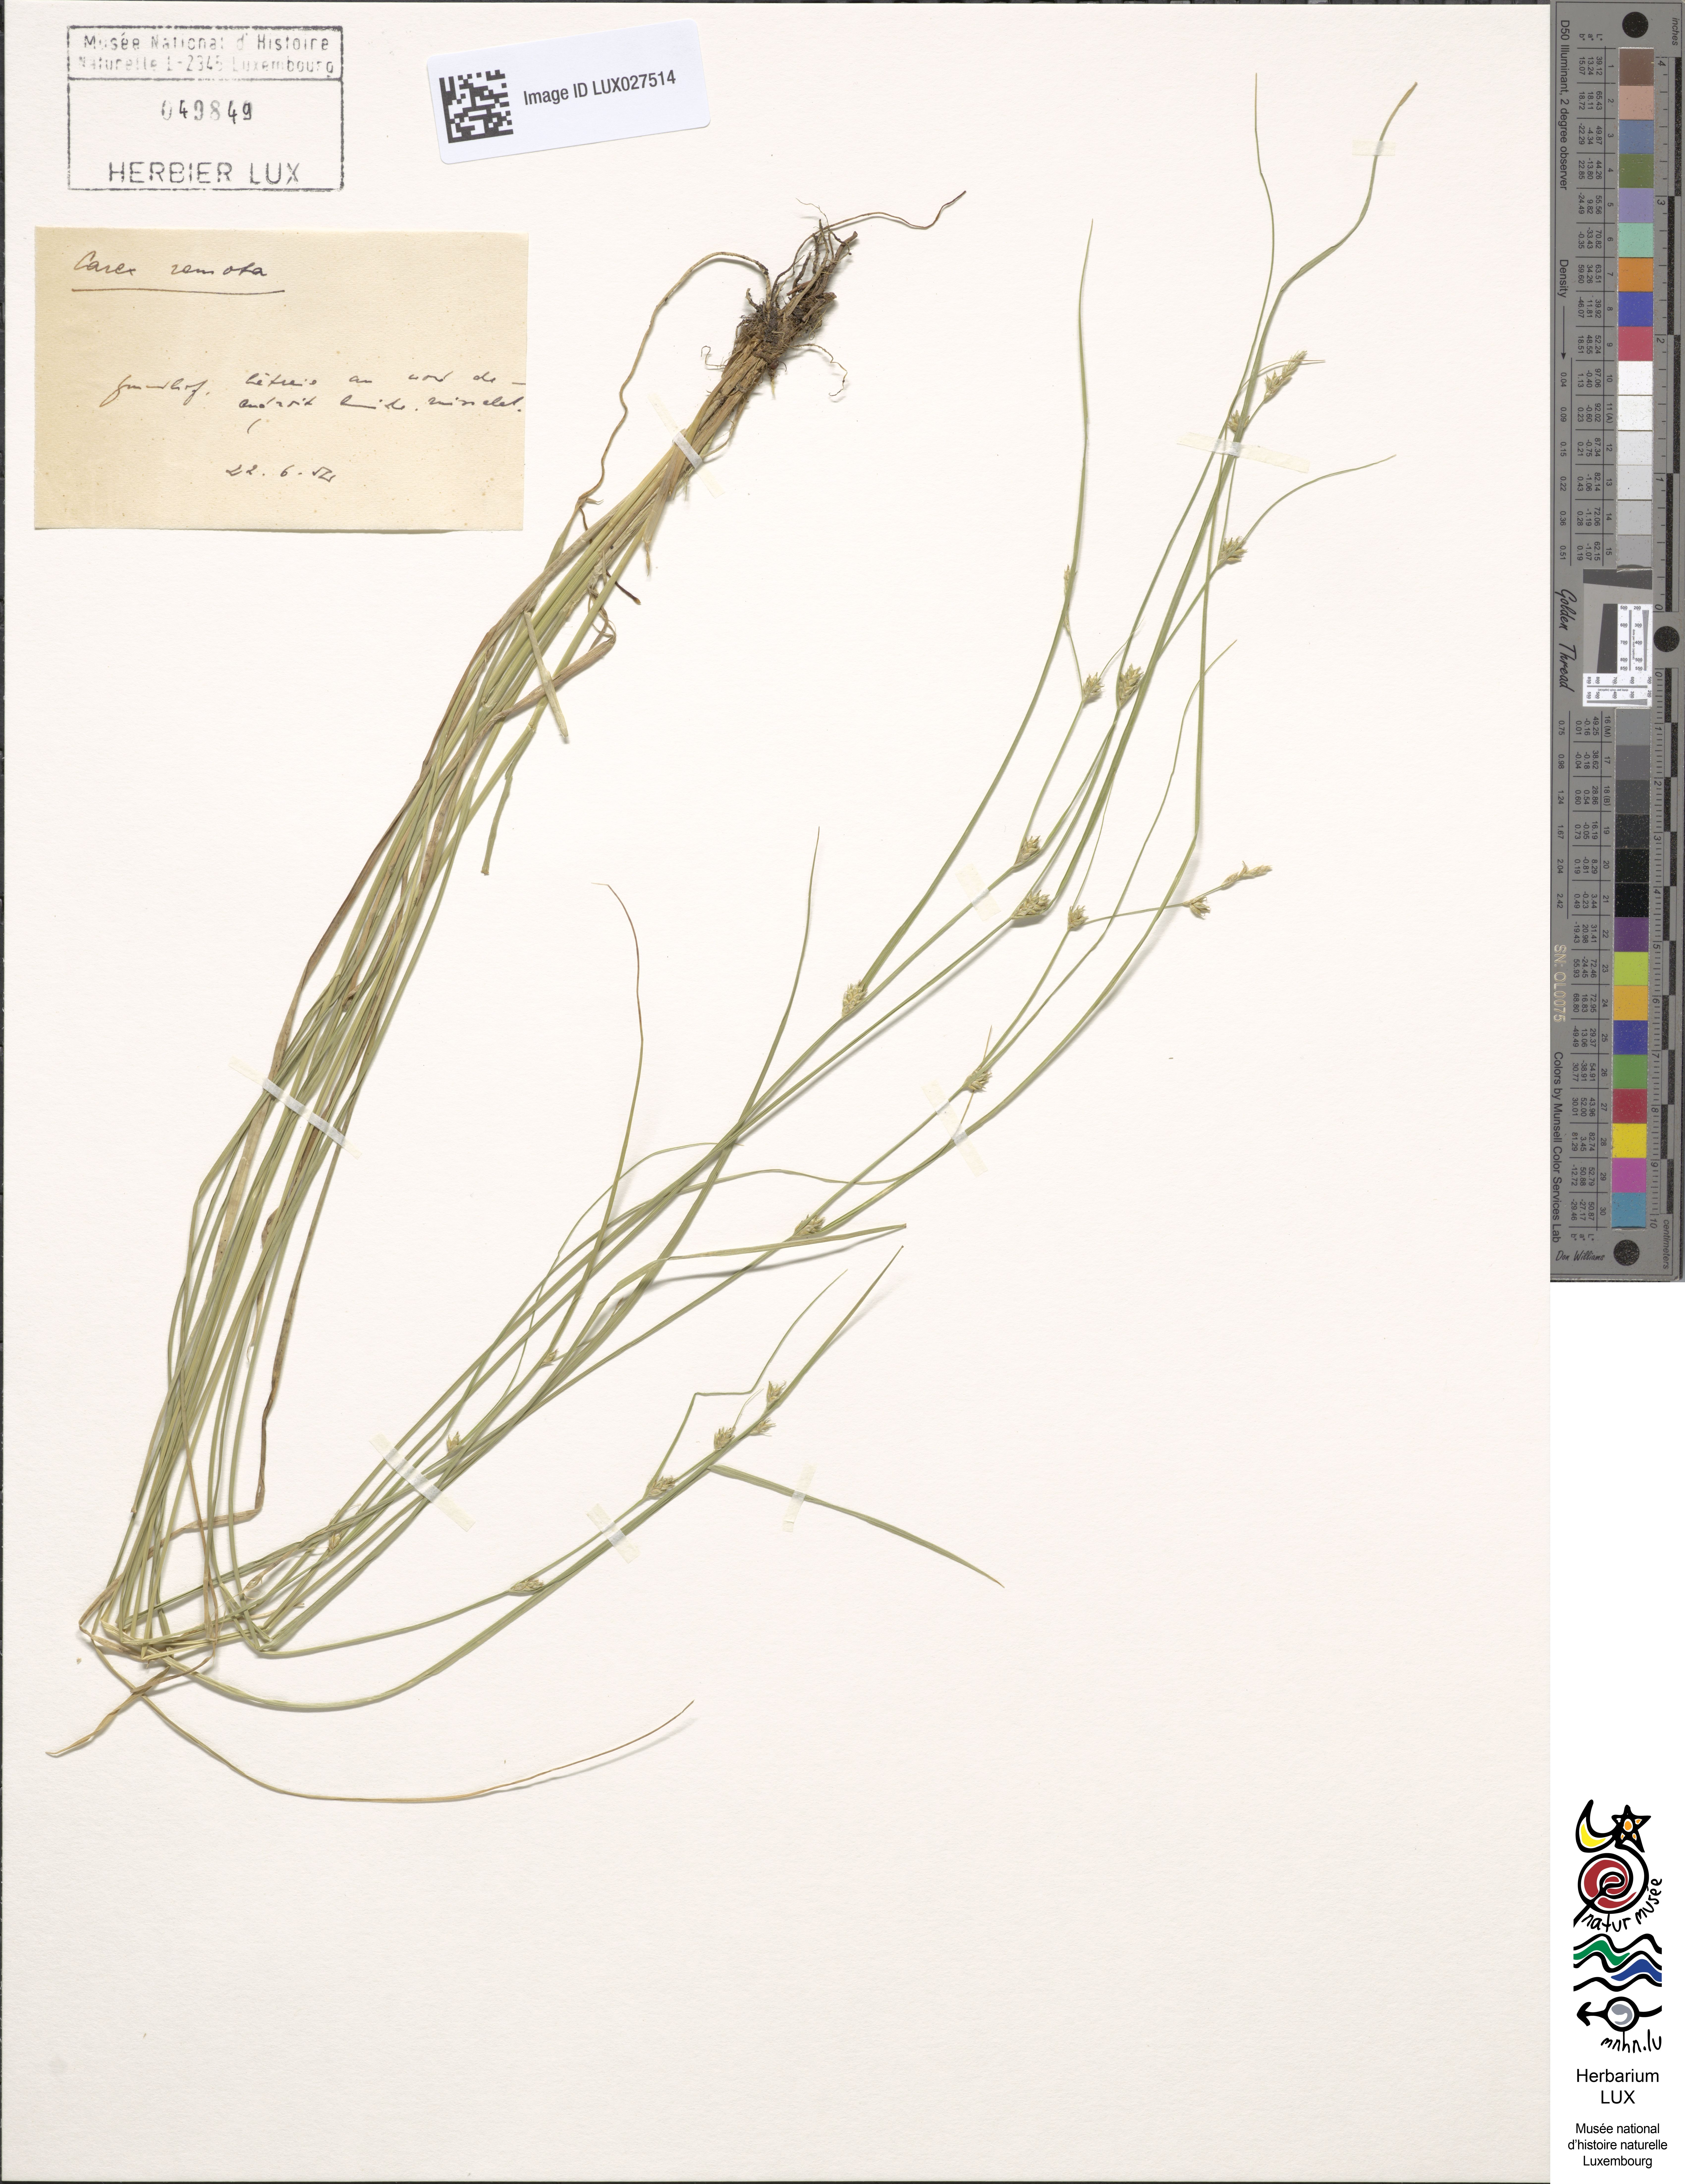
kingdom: Plantae
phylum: Tracheophyta
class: Liliopsida
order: Poales
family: Cyperaceae
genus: Carex
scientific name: Carex remota
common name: Remote sedge
